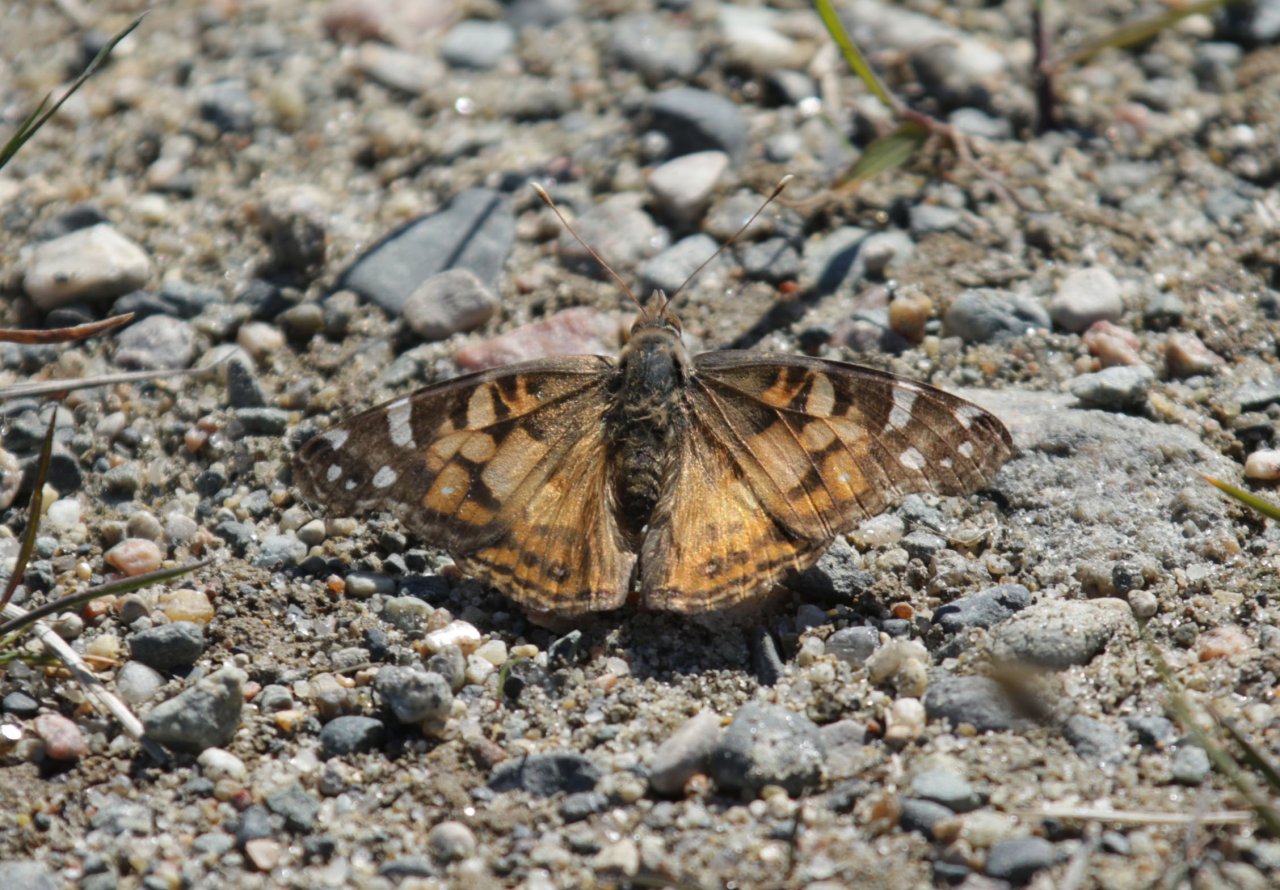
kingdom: Animalia
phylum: Arthropoda
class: Insecta
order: Lepidoptera
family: Nymphalidae
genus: Vanessa
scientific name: Vanessa virginiensis
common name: American Lady
